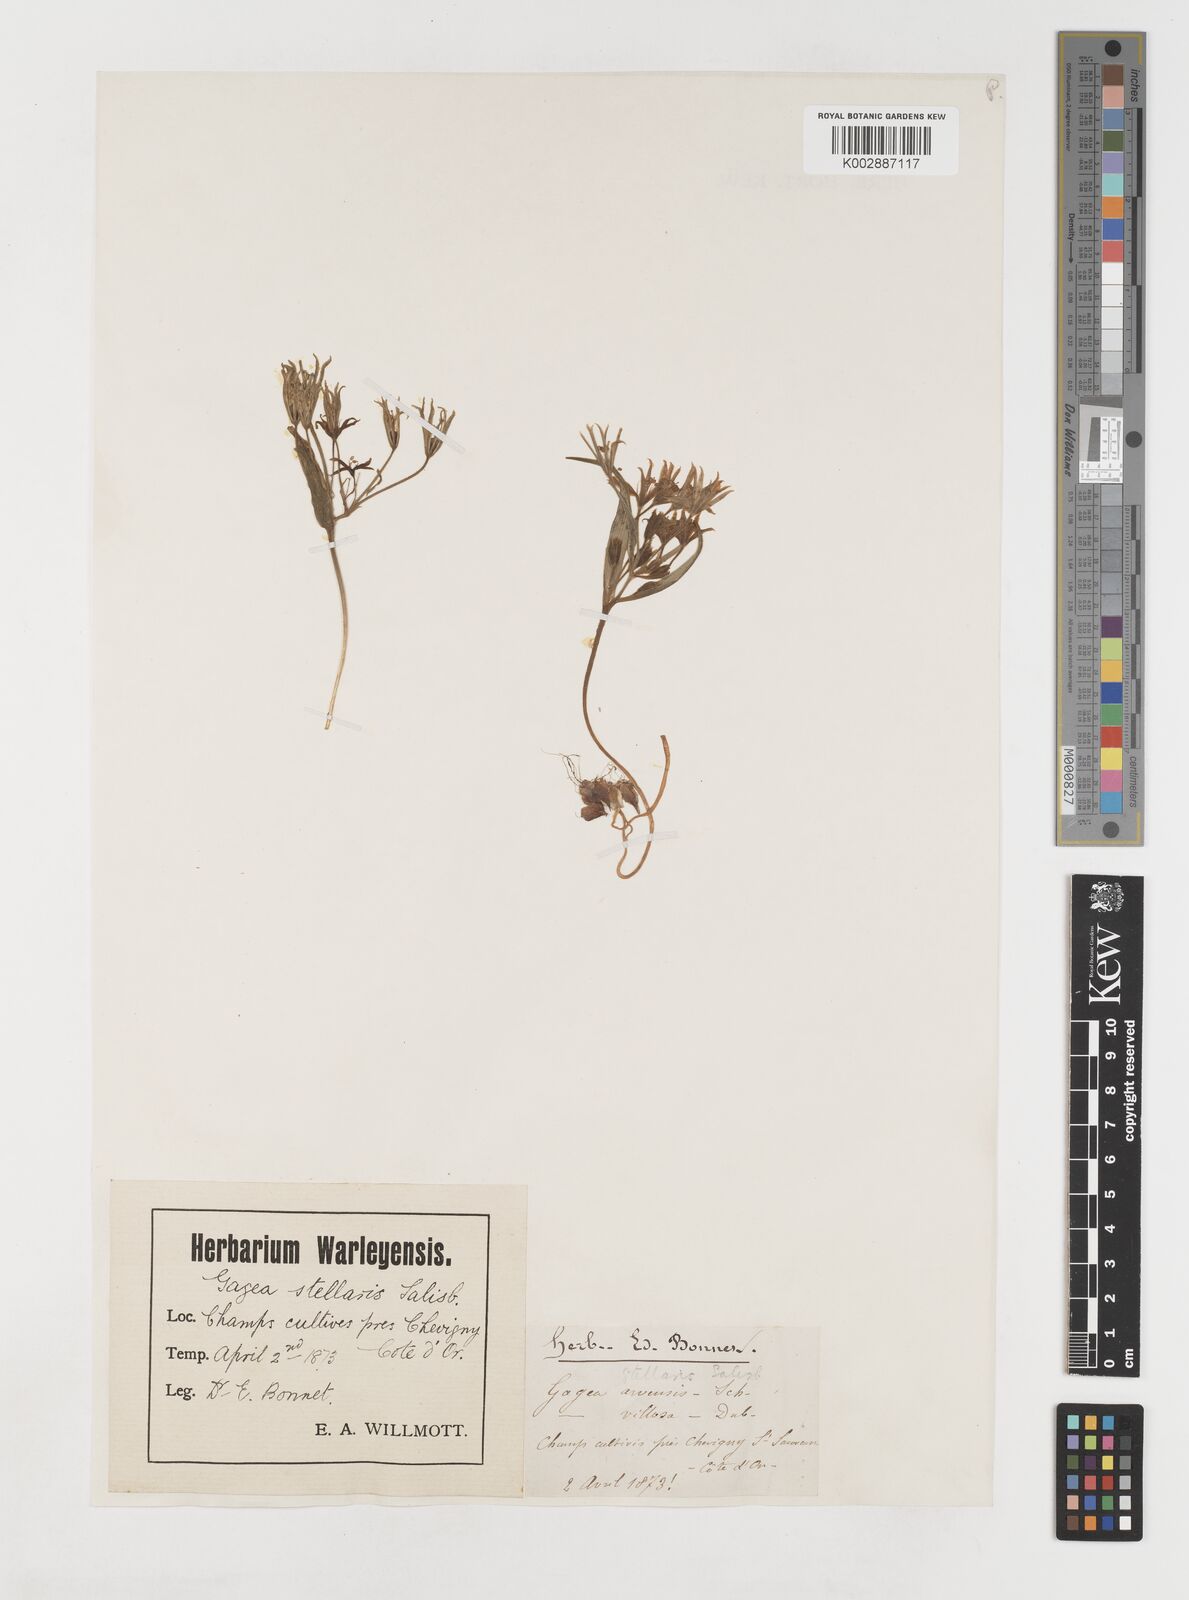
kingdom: Plantae
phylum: Tracheophyta
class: Liliopsida
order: Liliales
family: Liliaceae
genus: Gagea
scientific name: Gagea villosa
